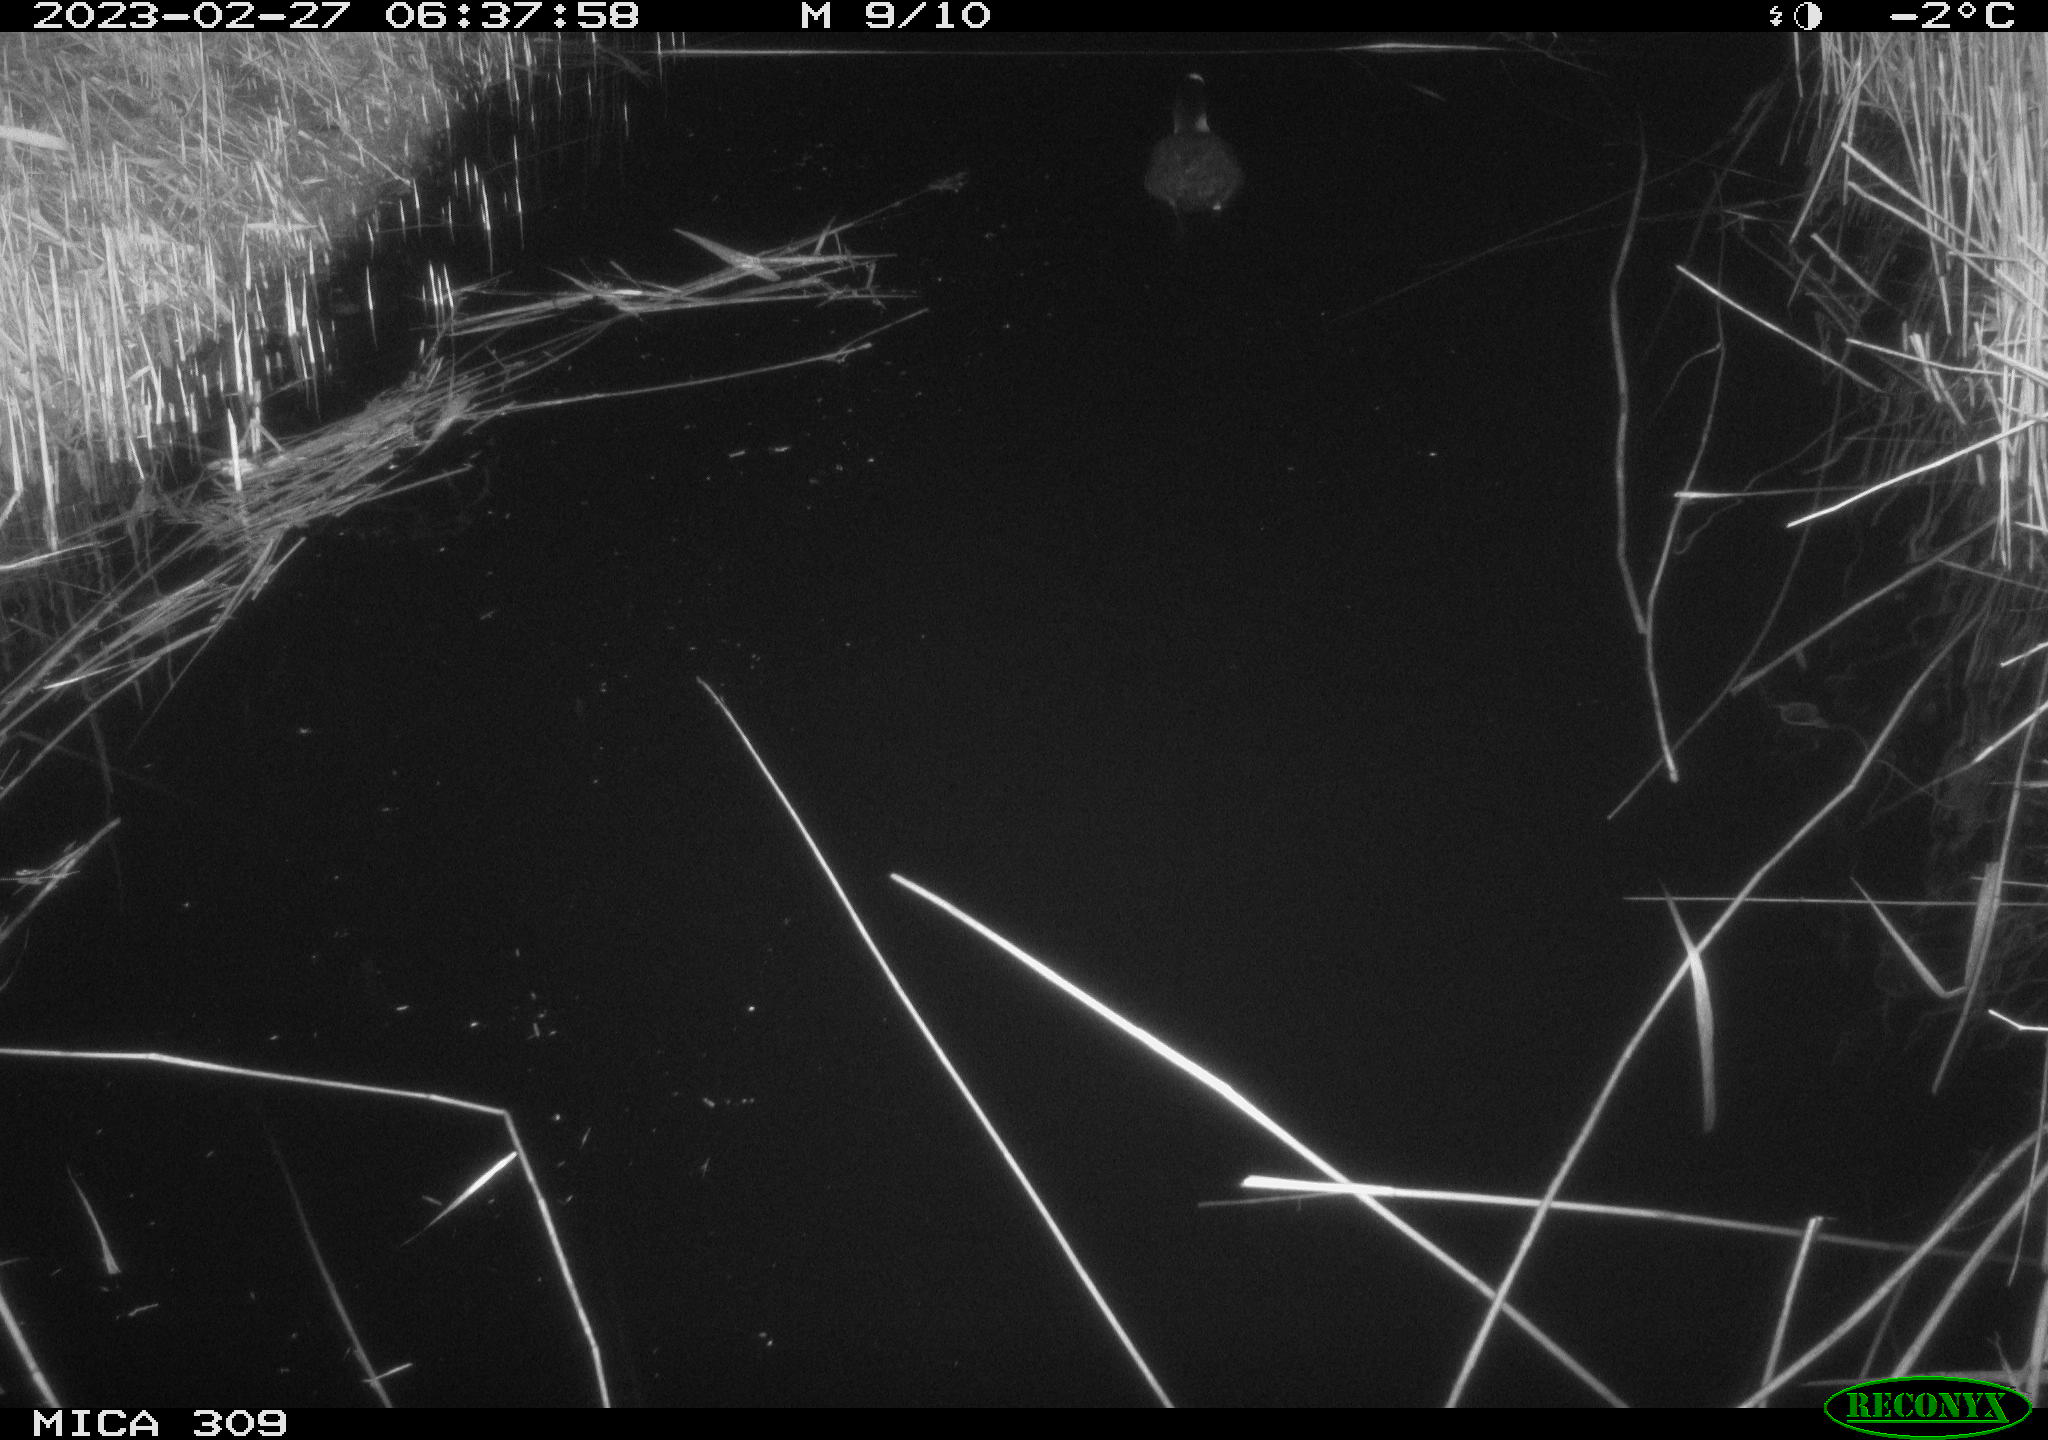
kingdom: Animalia
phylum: Chordata
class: Aves
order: Gruiformes
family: Rallidae
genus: Fulica
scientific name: Fulica atra
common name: Eurasian coot
